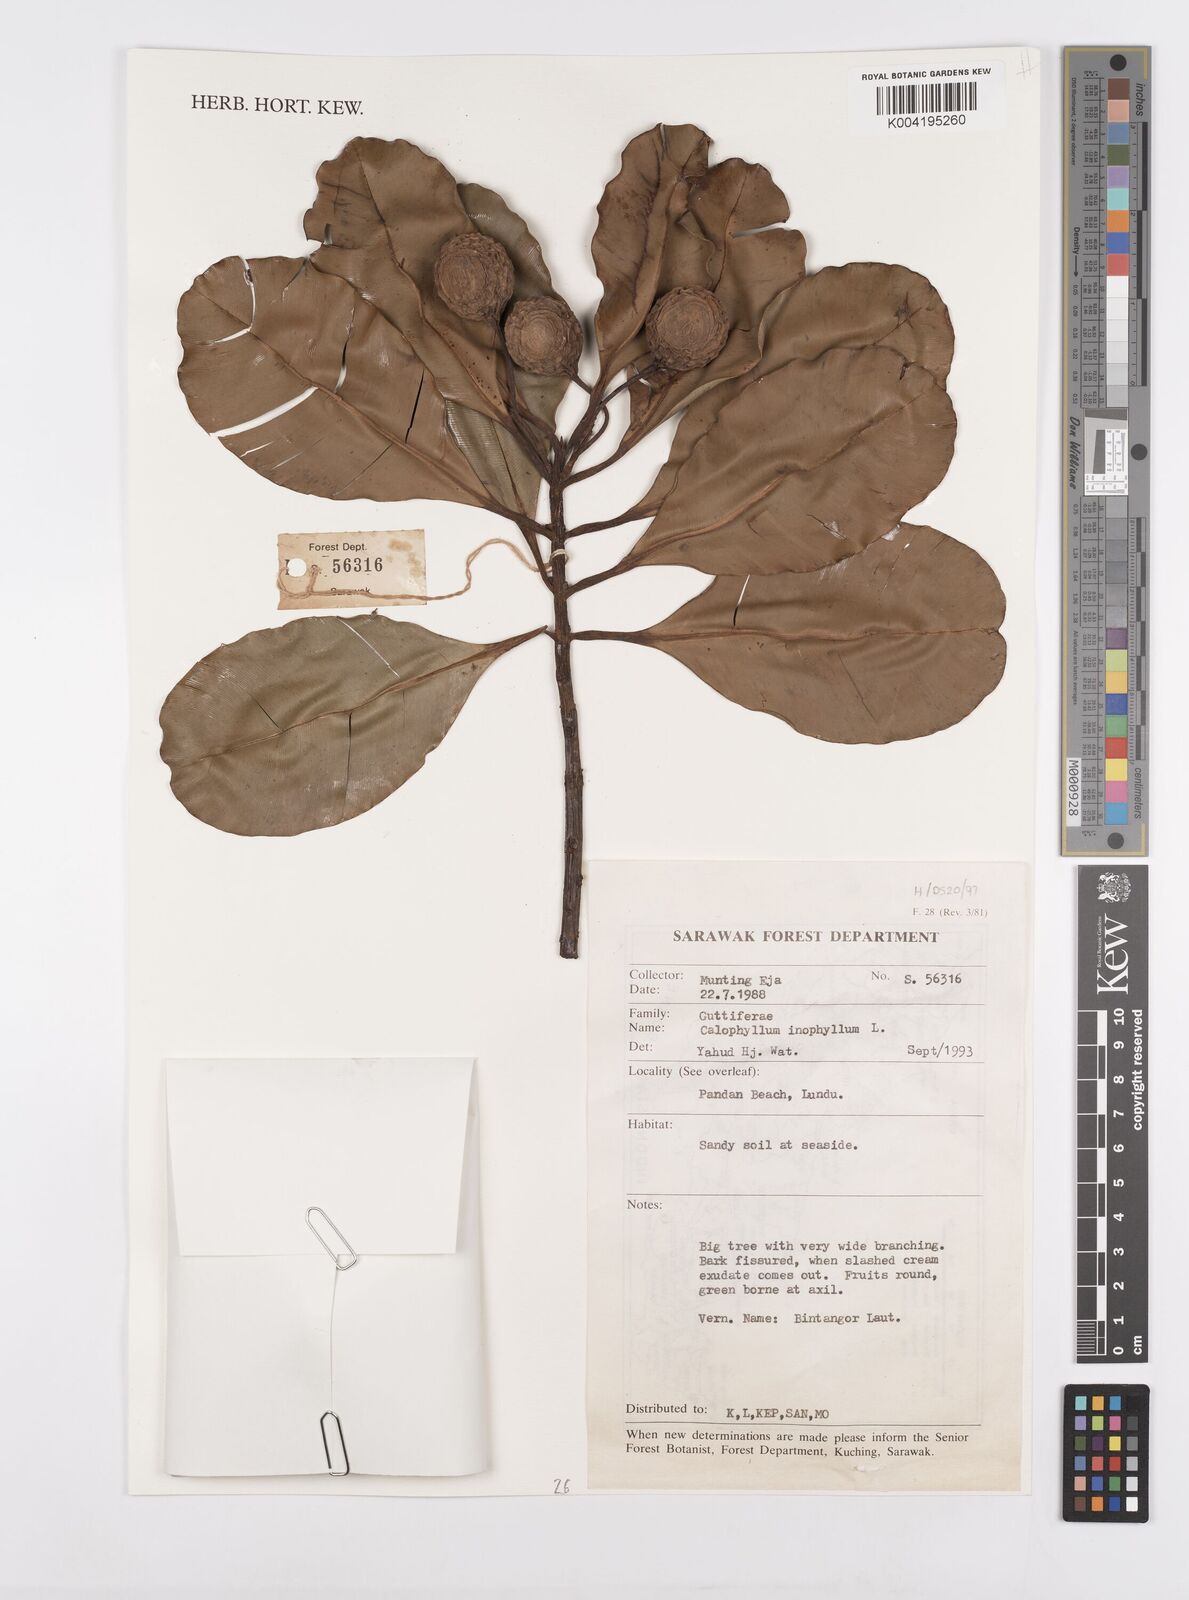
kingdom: Plantae
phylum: Tracheophyta
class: Magnoliopsida
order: Malpighiales
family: Calophyllaceae
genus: Calophyllum
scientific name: Calophyllum inophyllum
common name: Alexandrian laurel
